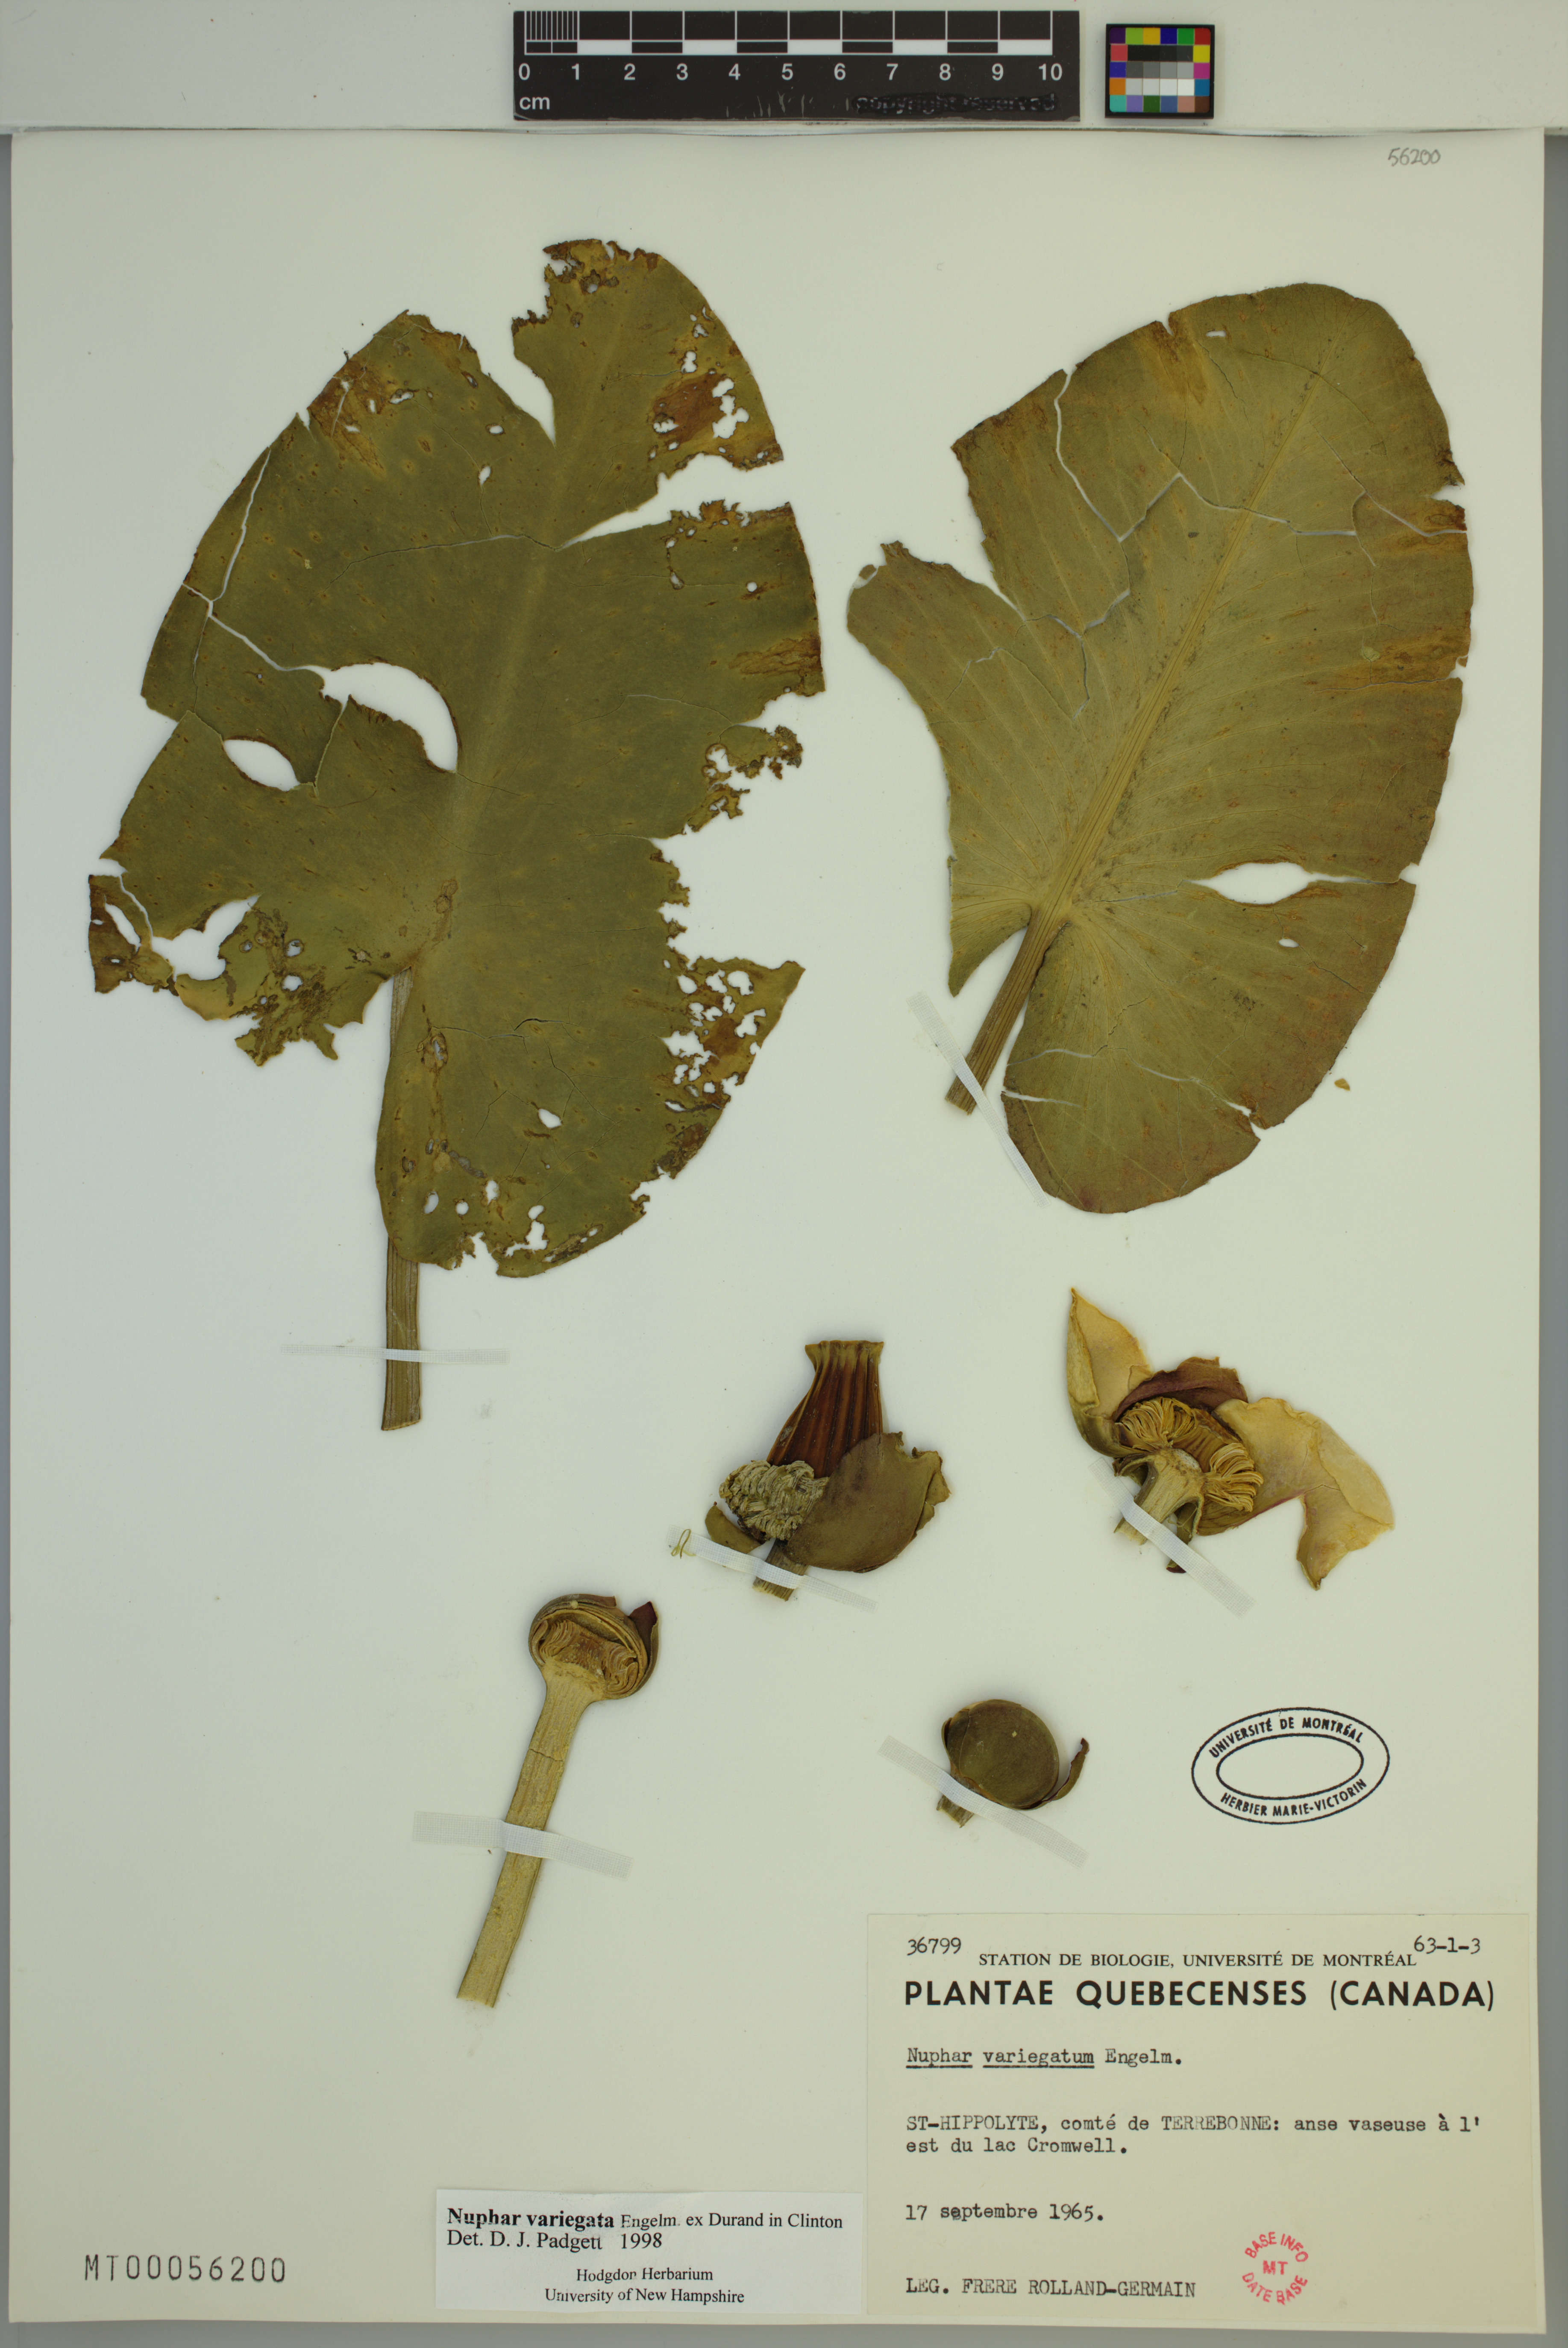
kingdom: Plantae
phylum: Tracheophyta
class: Magnoliopsida
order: Nymphaeales
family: Nymphaeaceae
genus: Nuphar
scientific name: Nuphar variegata
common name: Beaver-root
